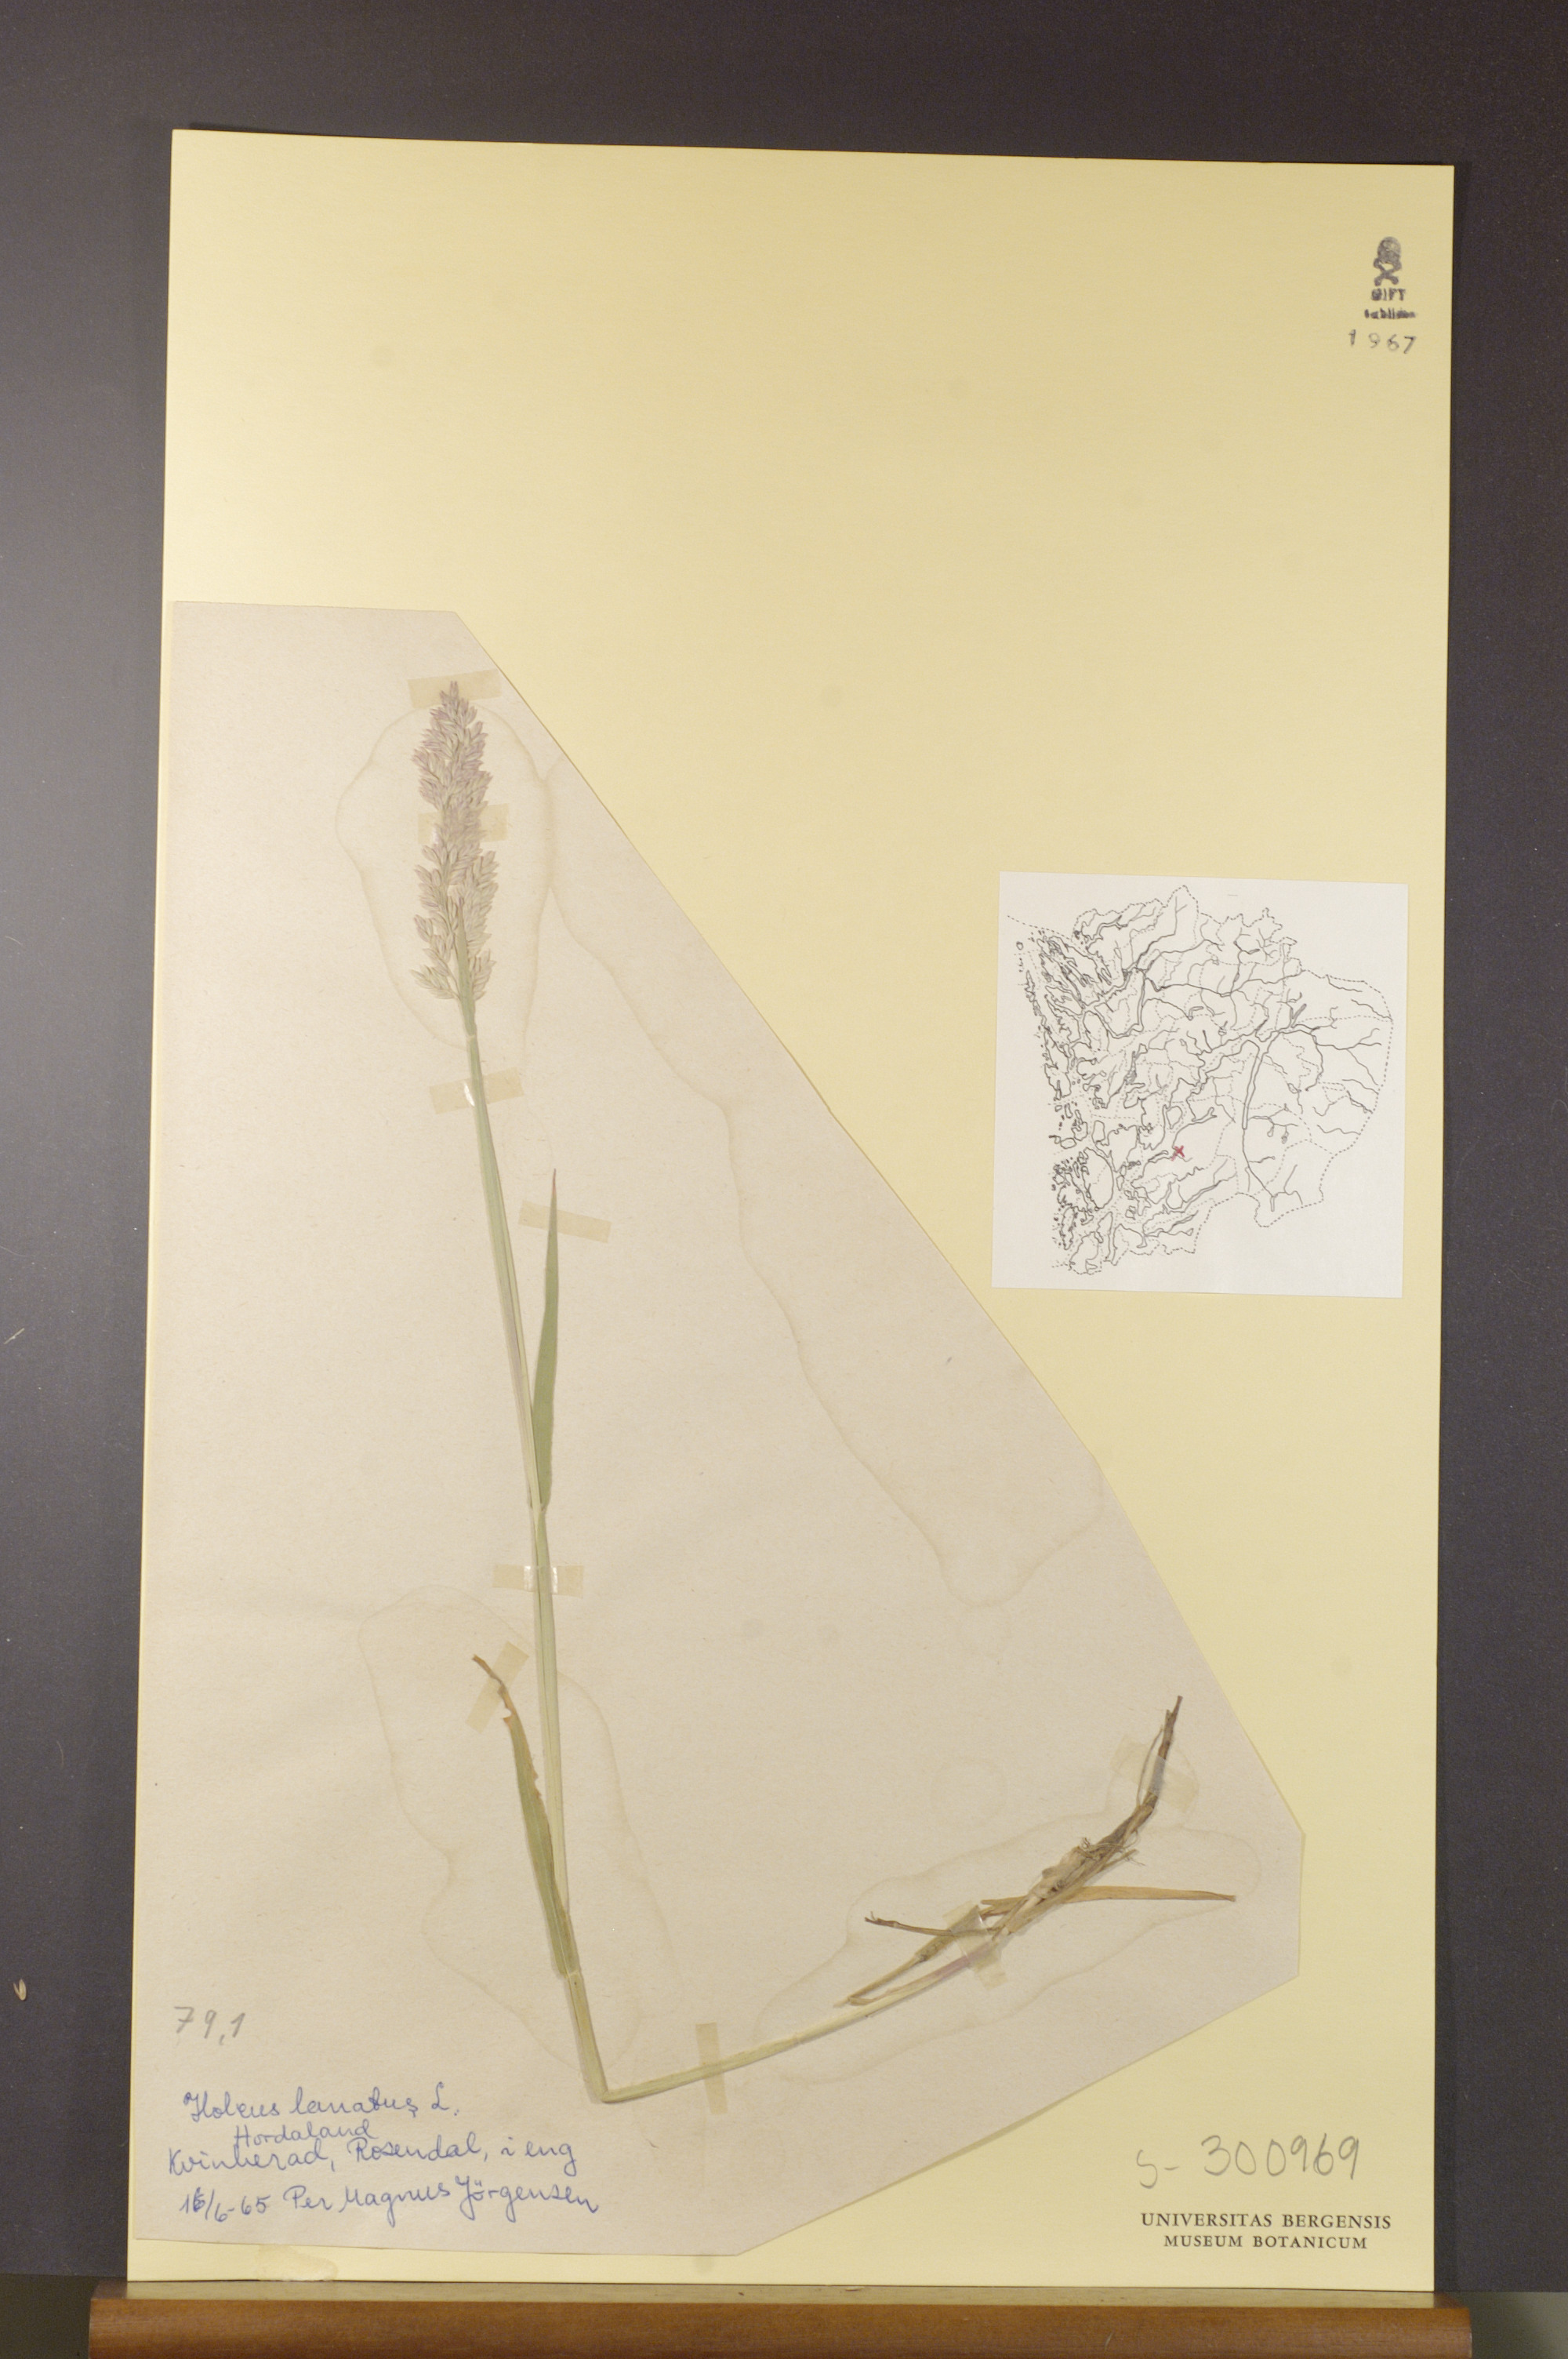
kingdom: Plantae
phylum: Tracheophyta
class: Liliopsida
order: Poales
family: Poaceae
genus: Holcus
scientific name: Holcus lanatus
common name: Yorkshire-fog
